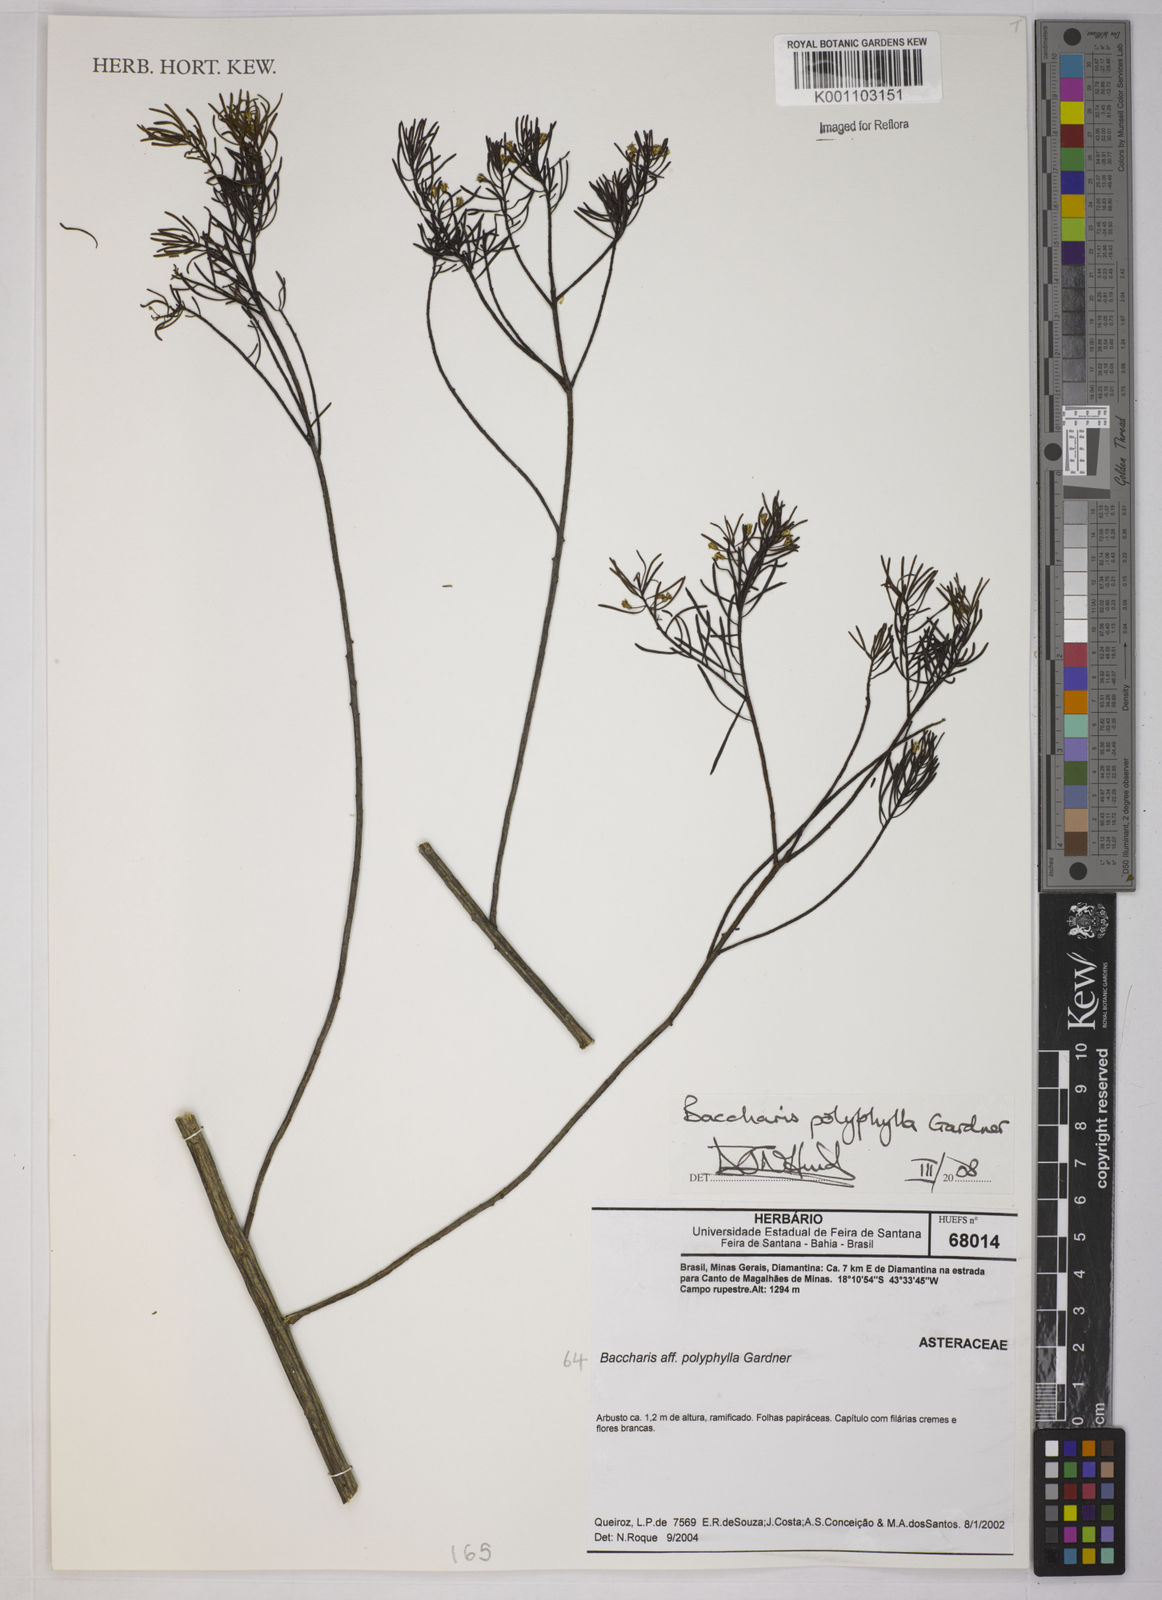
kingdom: Plantae
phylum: Tracheophyta
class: Magnoliopsida
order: Asterales
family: Asteraceae
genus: Baccharis
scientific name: Baccharis polyphylla
